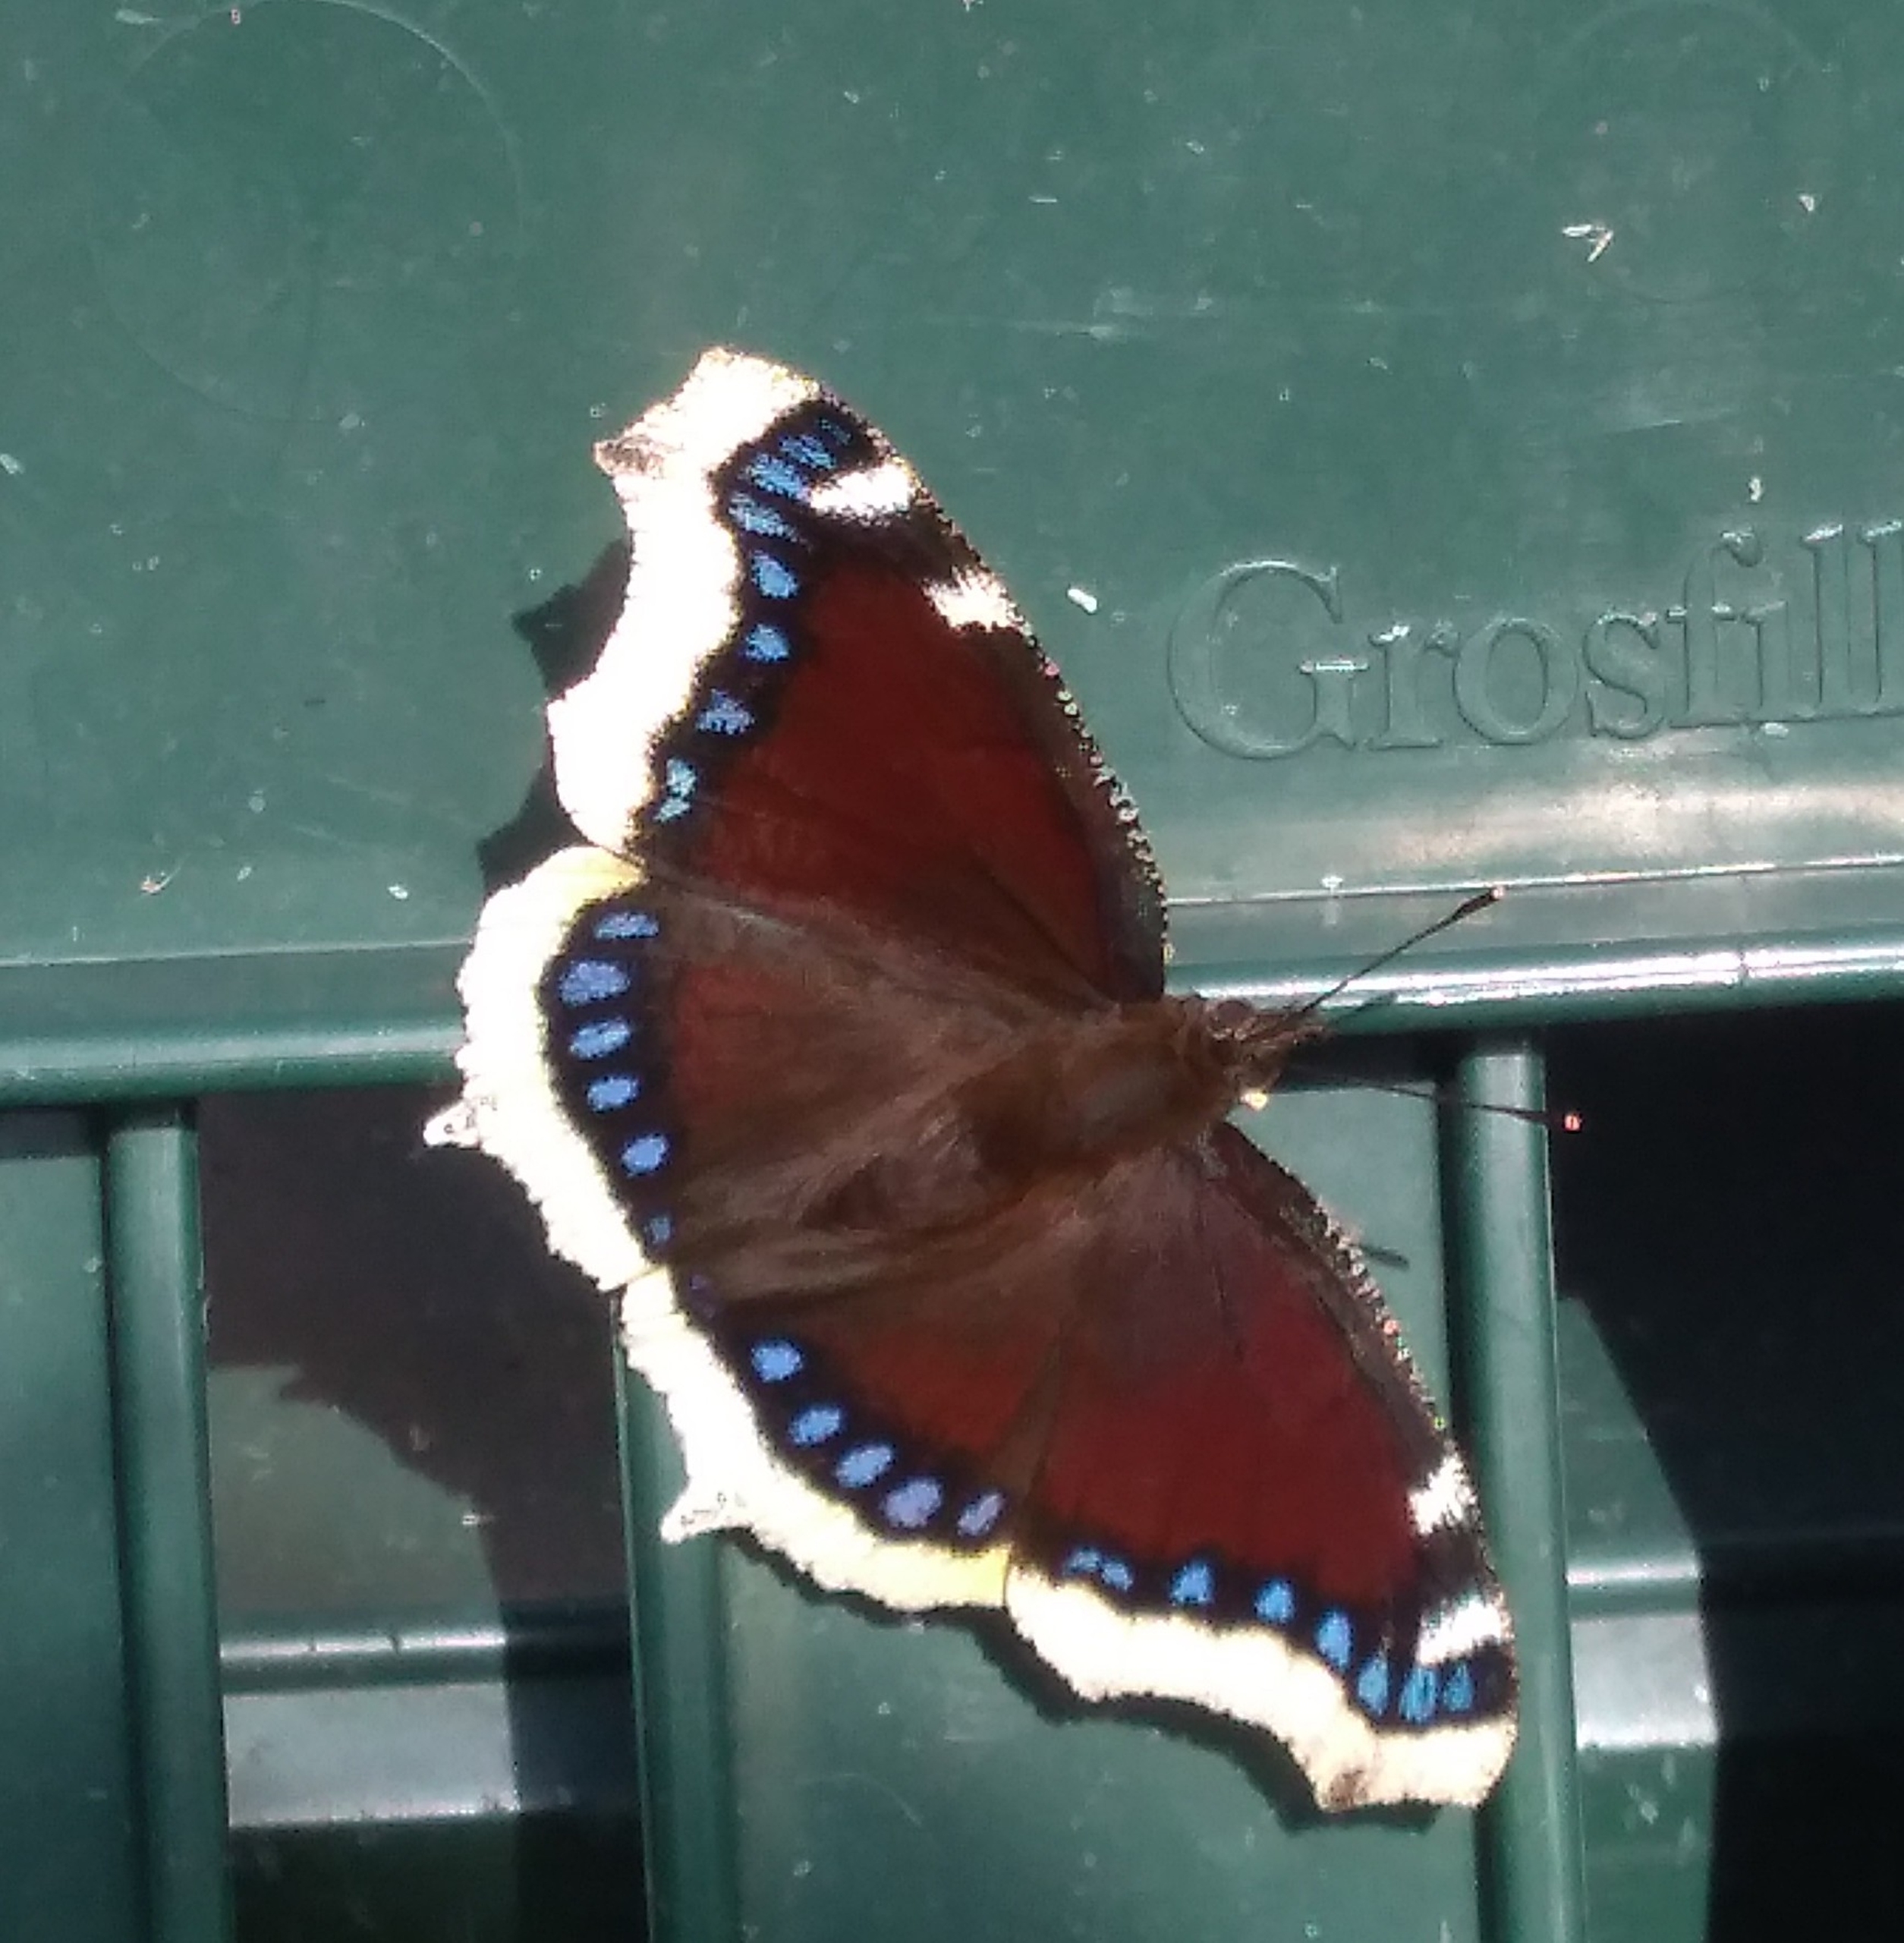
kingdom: Animalia
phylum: Arthropoda
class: Insecta
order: Lepidoptera
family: Nymphalidae
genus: Nymphalis
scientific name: Nymphalis antiopa
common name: Sørgekåbe
